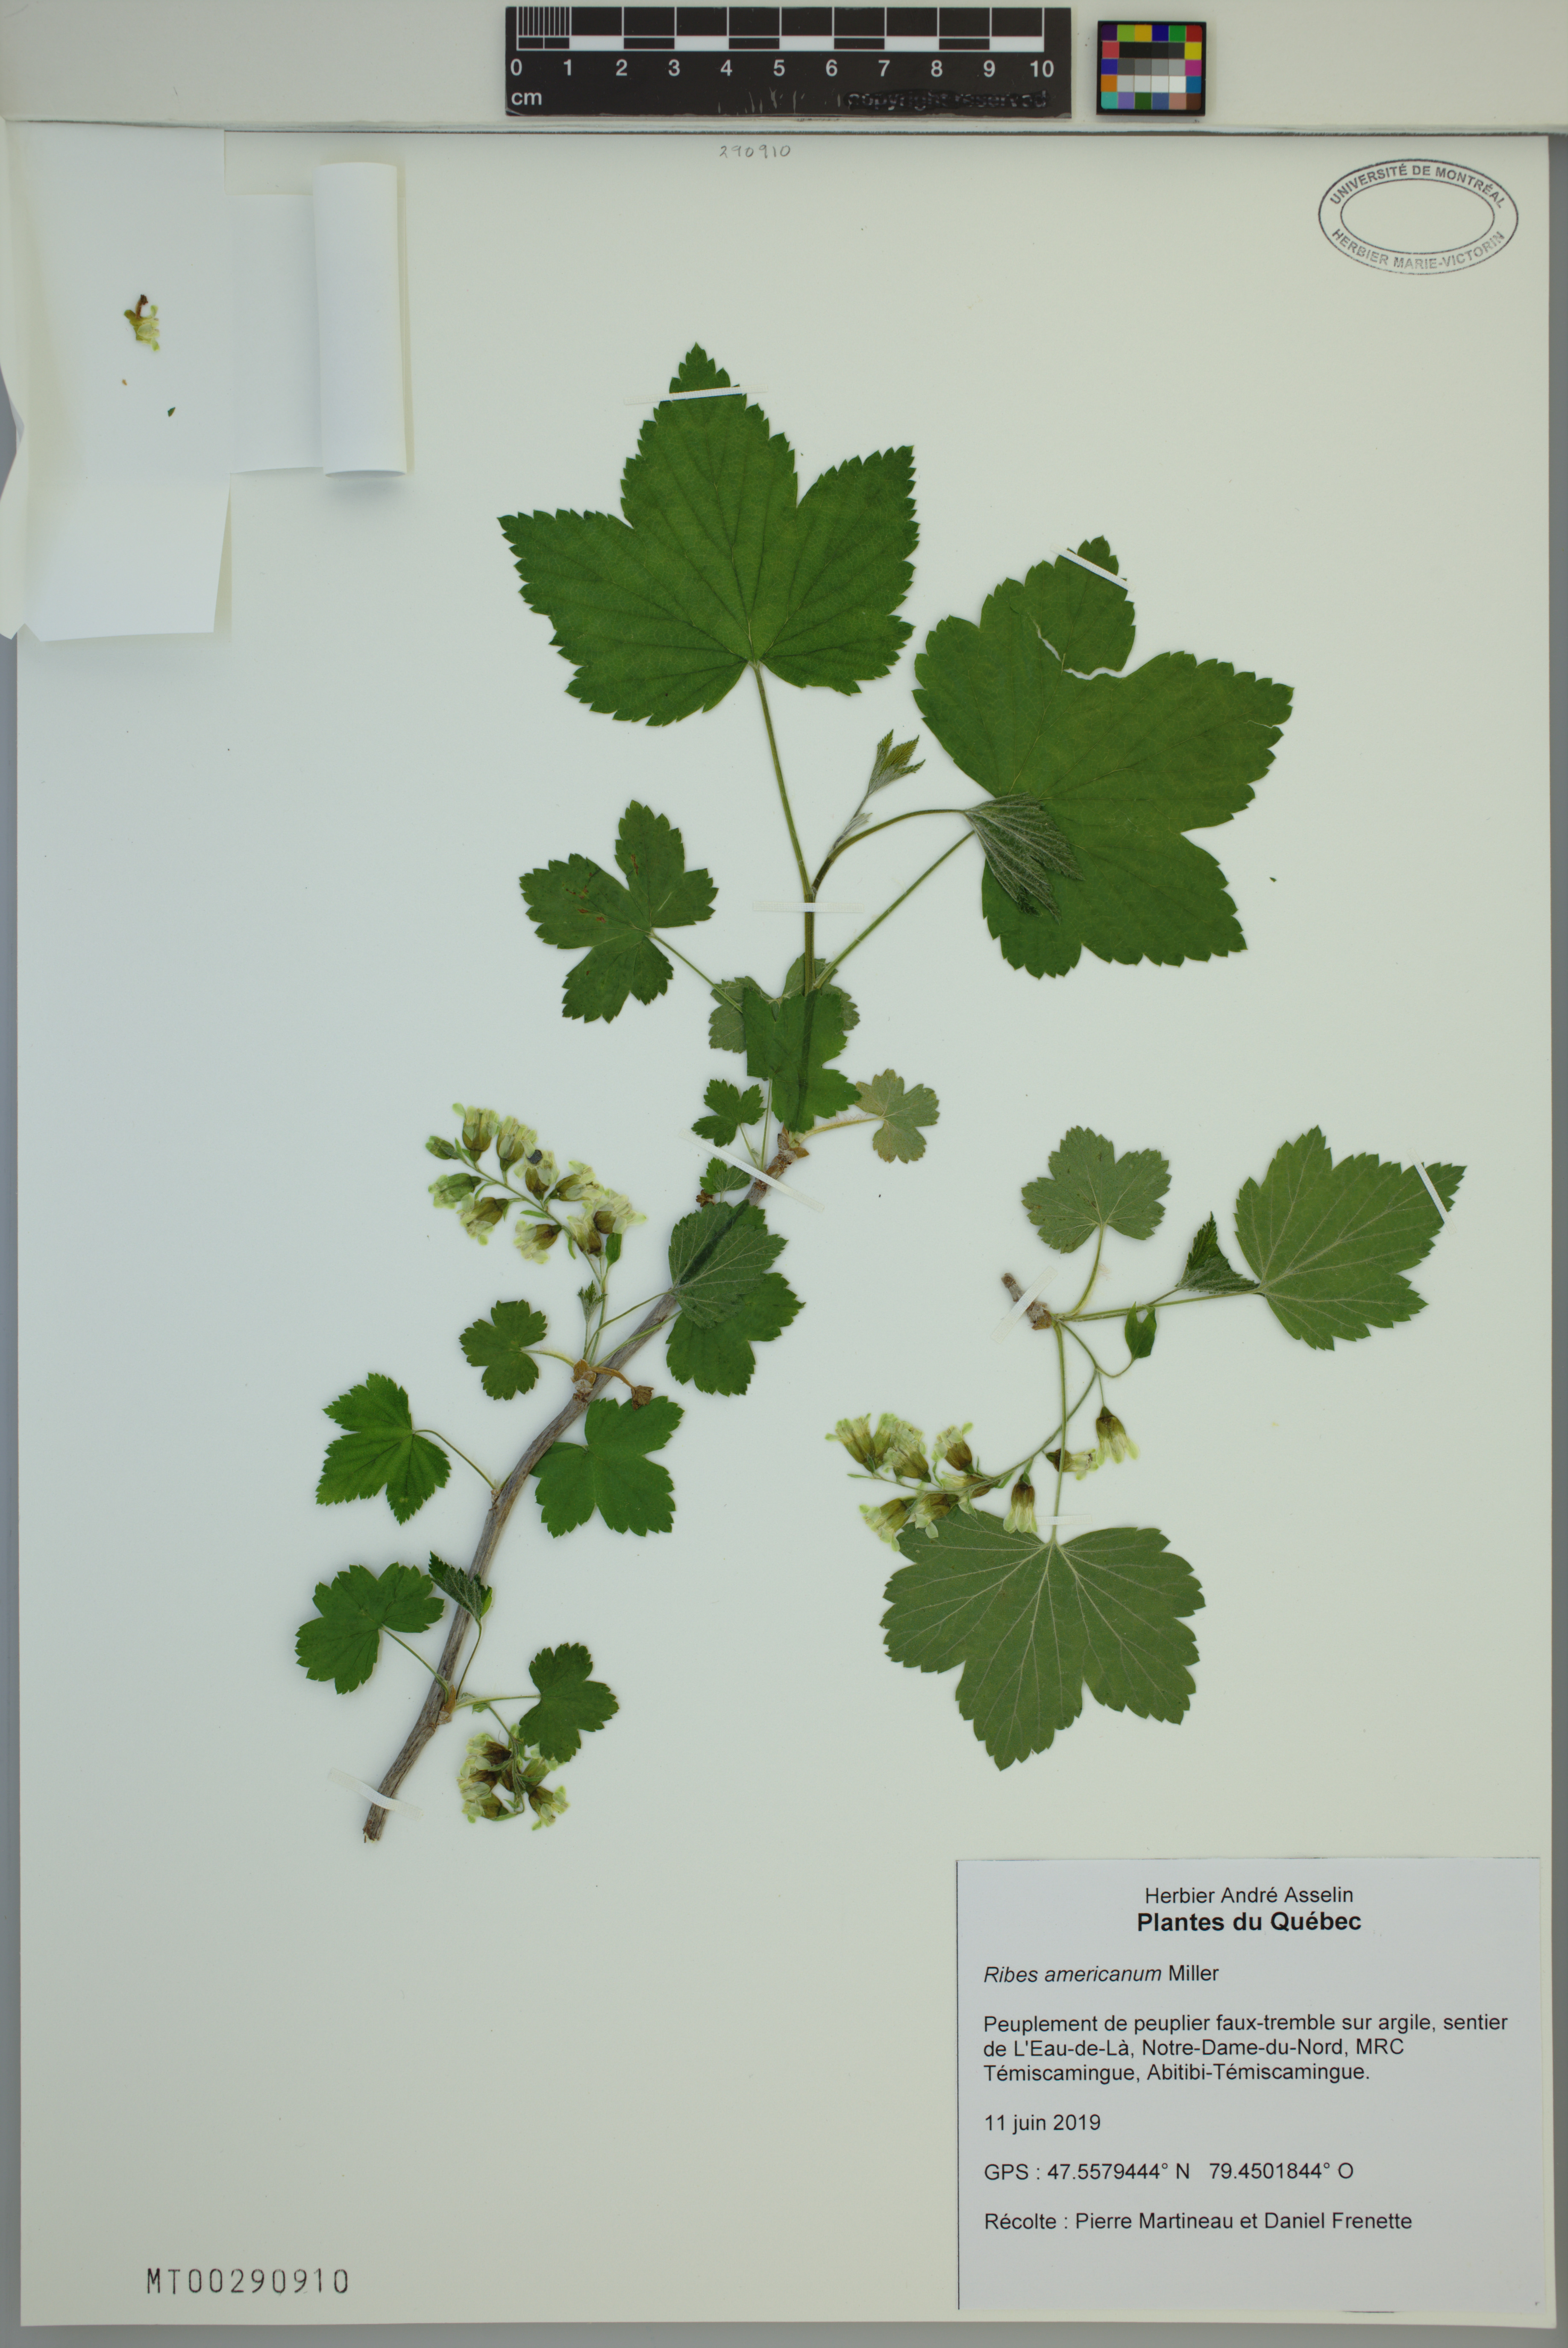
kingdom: Plantae
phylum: Tracheophyta
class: Magnoliopsida
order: Saxifragales
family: Grossulariaceae
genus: Ribes
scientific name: Ribes americanum
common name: American black currant
